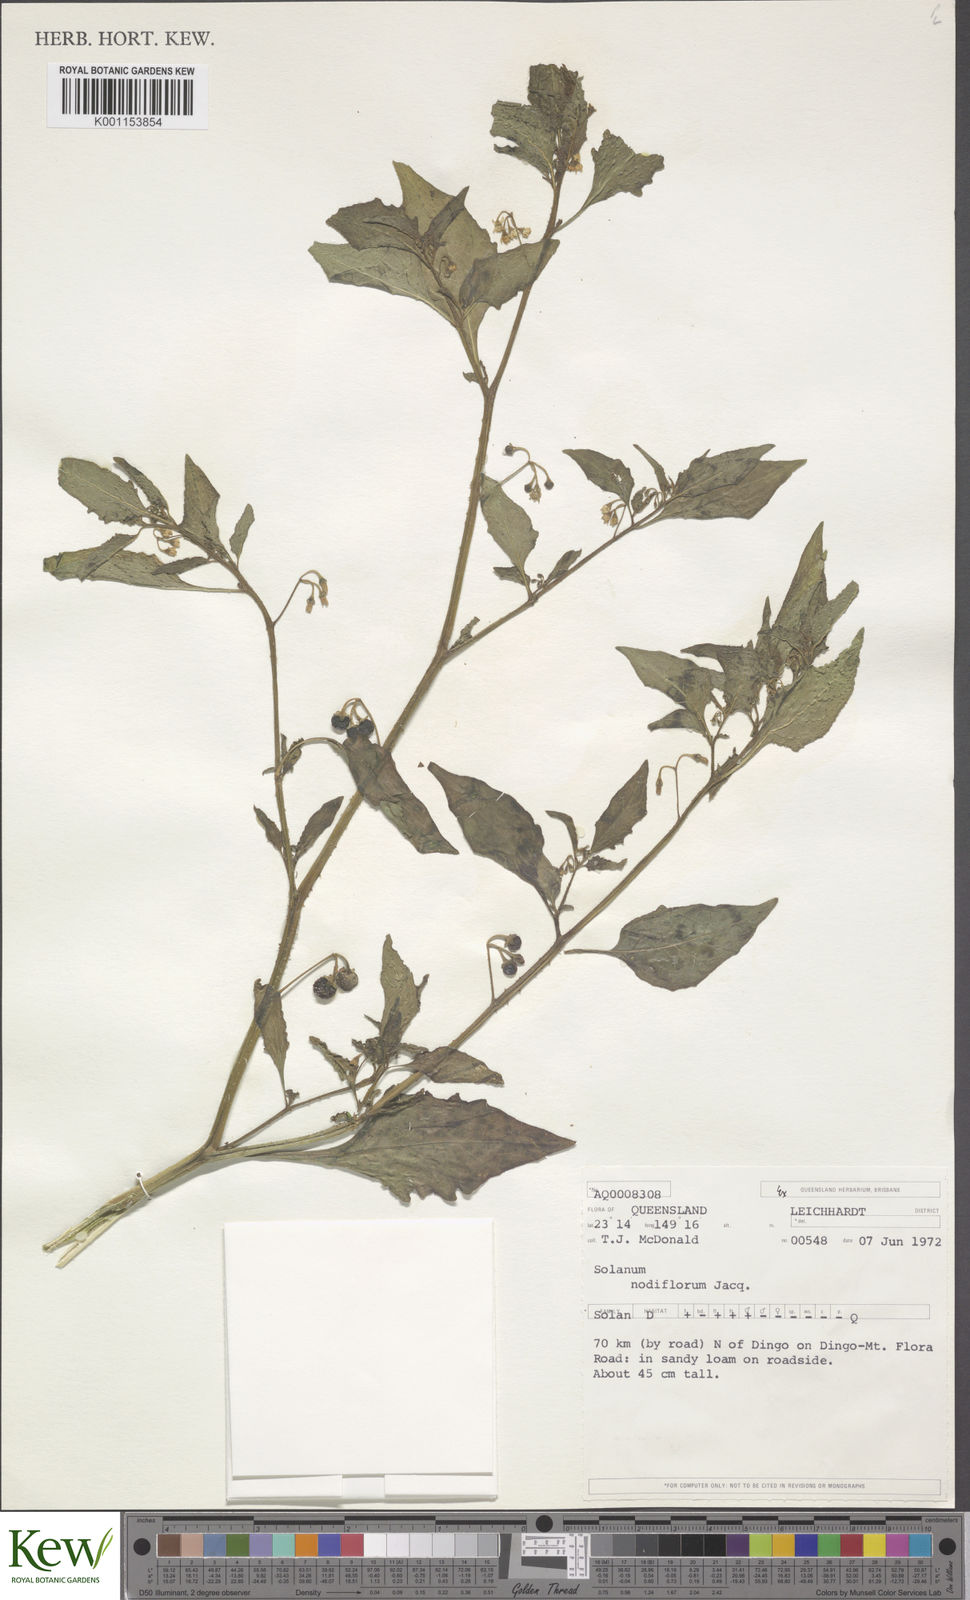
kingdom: Plantae
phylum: Tracheophyta
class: Magnoliopsida
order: Solanales
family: Solanaceae
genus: Solanum
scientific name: Solanum americanum
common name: American black nightshade
